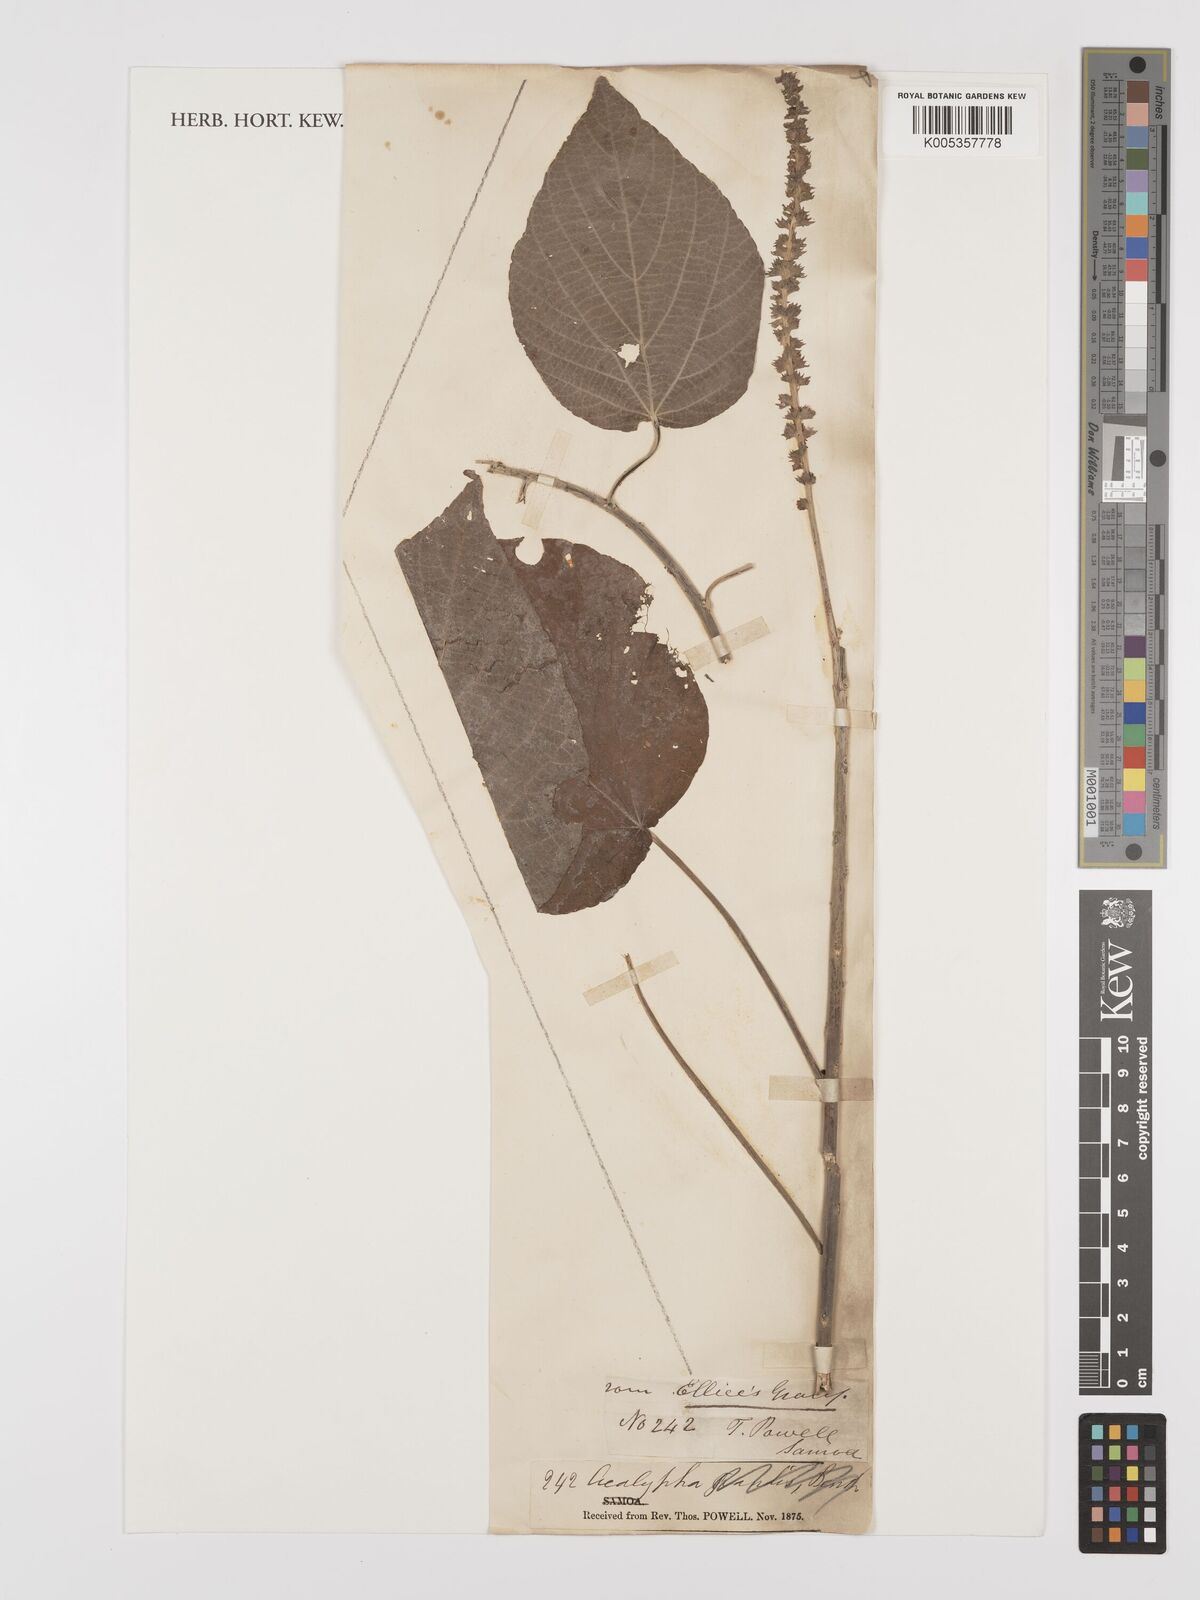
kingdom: Plantae
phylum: Tracheophyta
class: Magnoliopsida
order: Malpighiales
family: Euphorbiaceae
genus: Acalypha
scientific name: Acalypha
